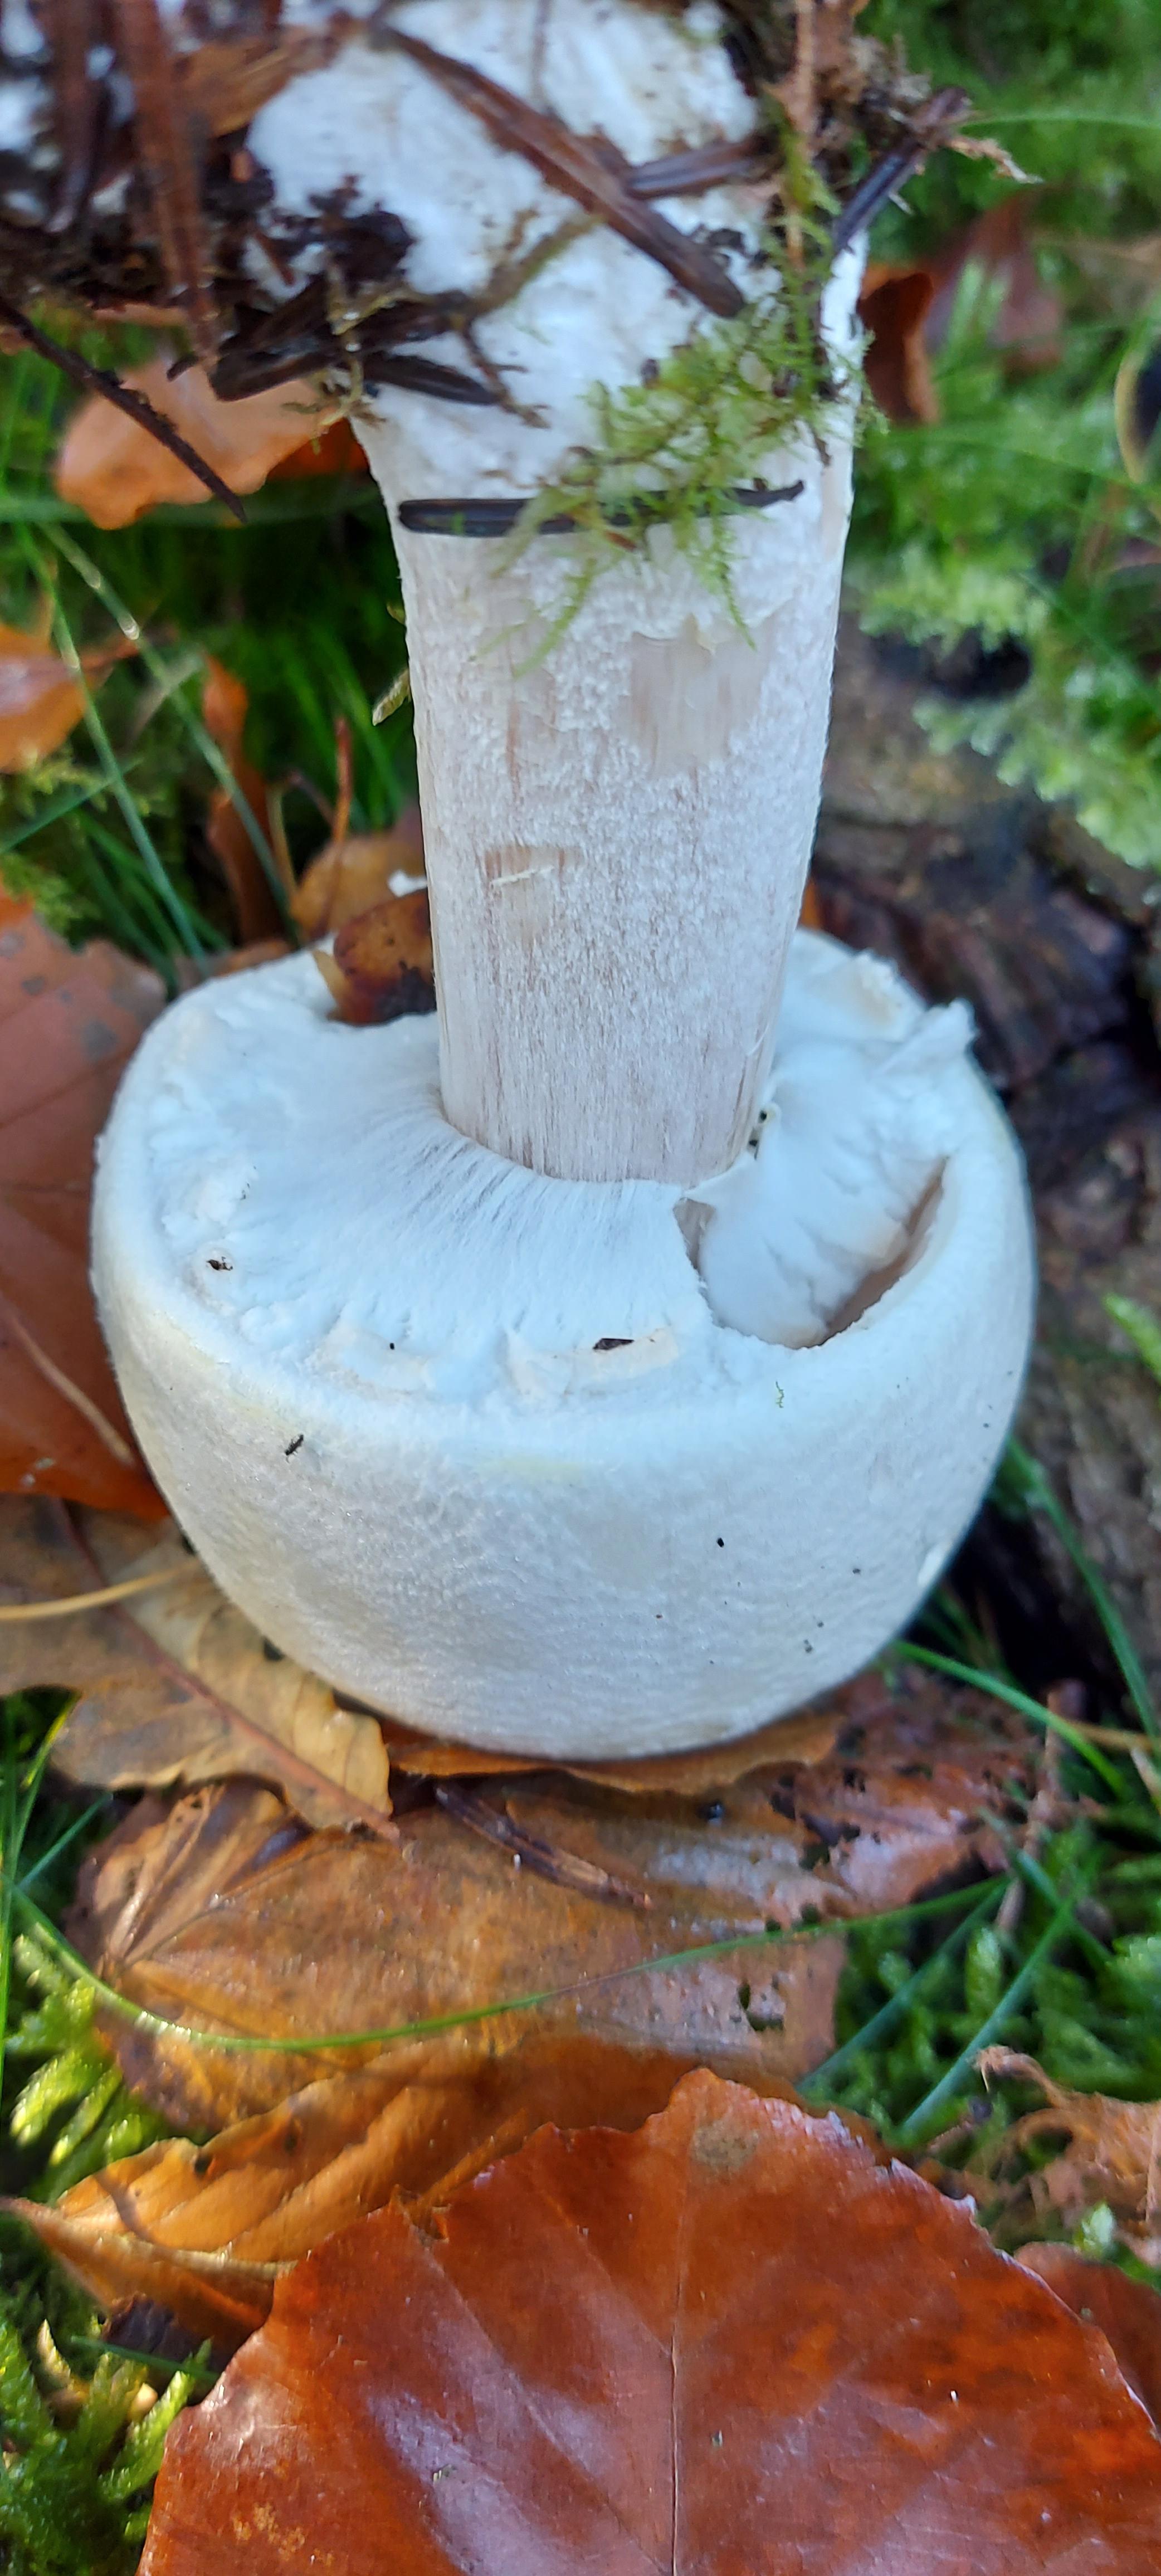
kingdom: Fungi
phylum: Basidiomycota
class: Agaricomycetes
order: Agaricales
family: Agaricaceae
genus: Agaricus
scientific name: Agaricus
